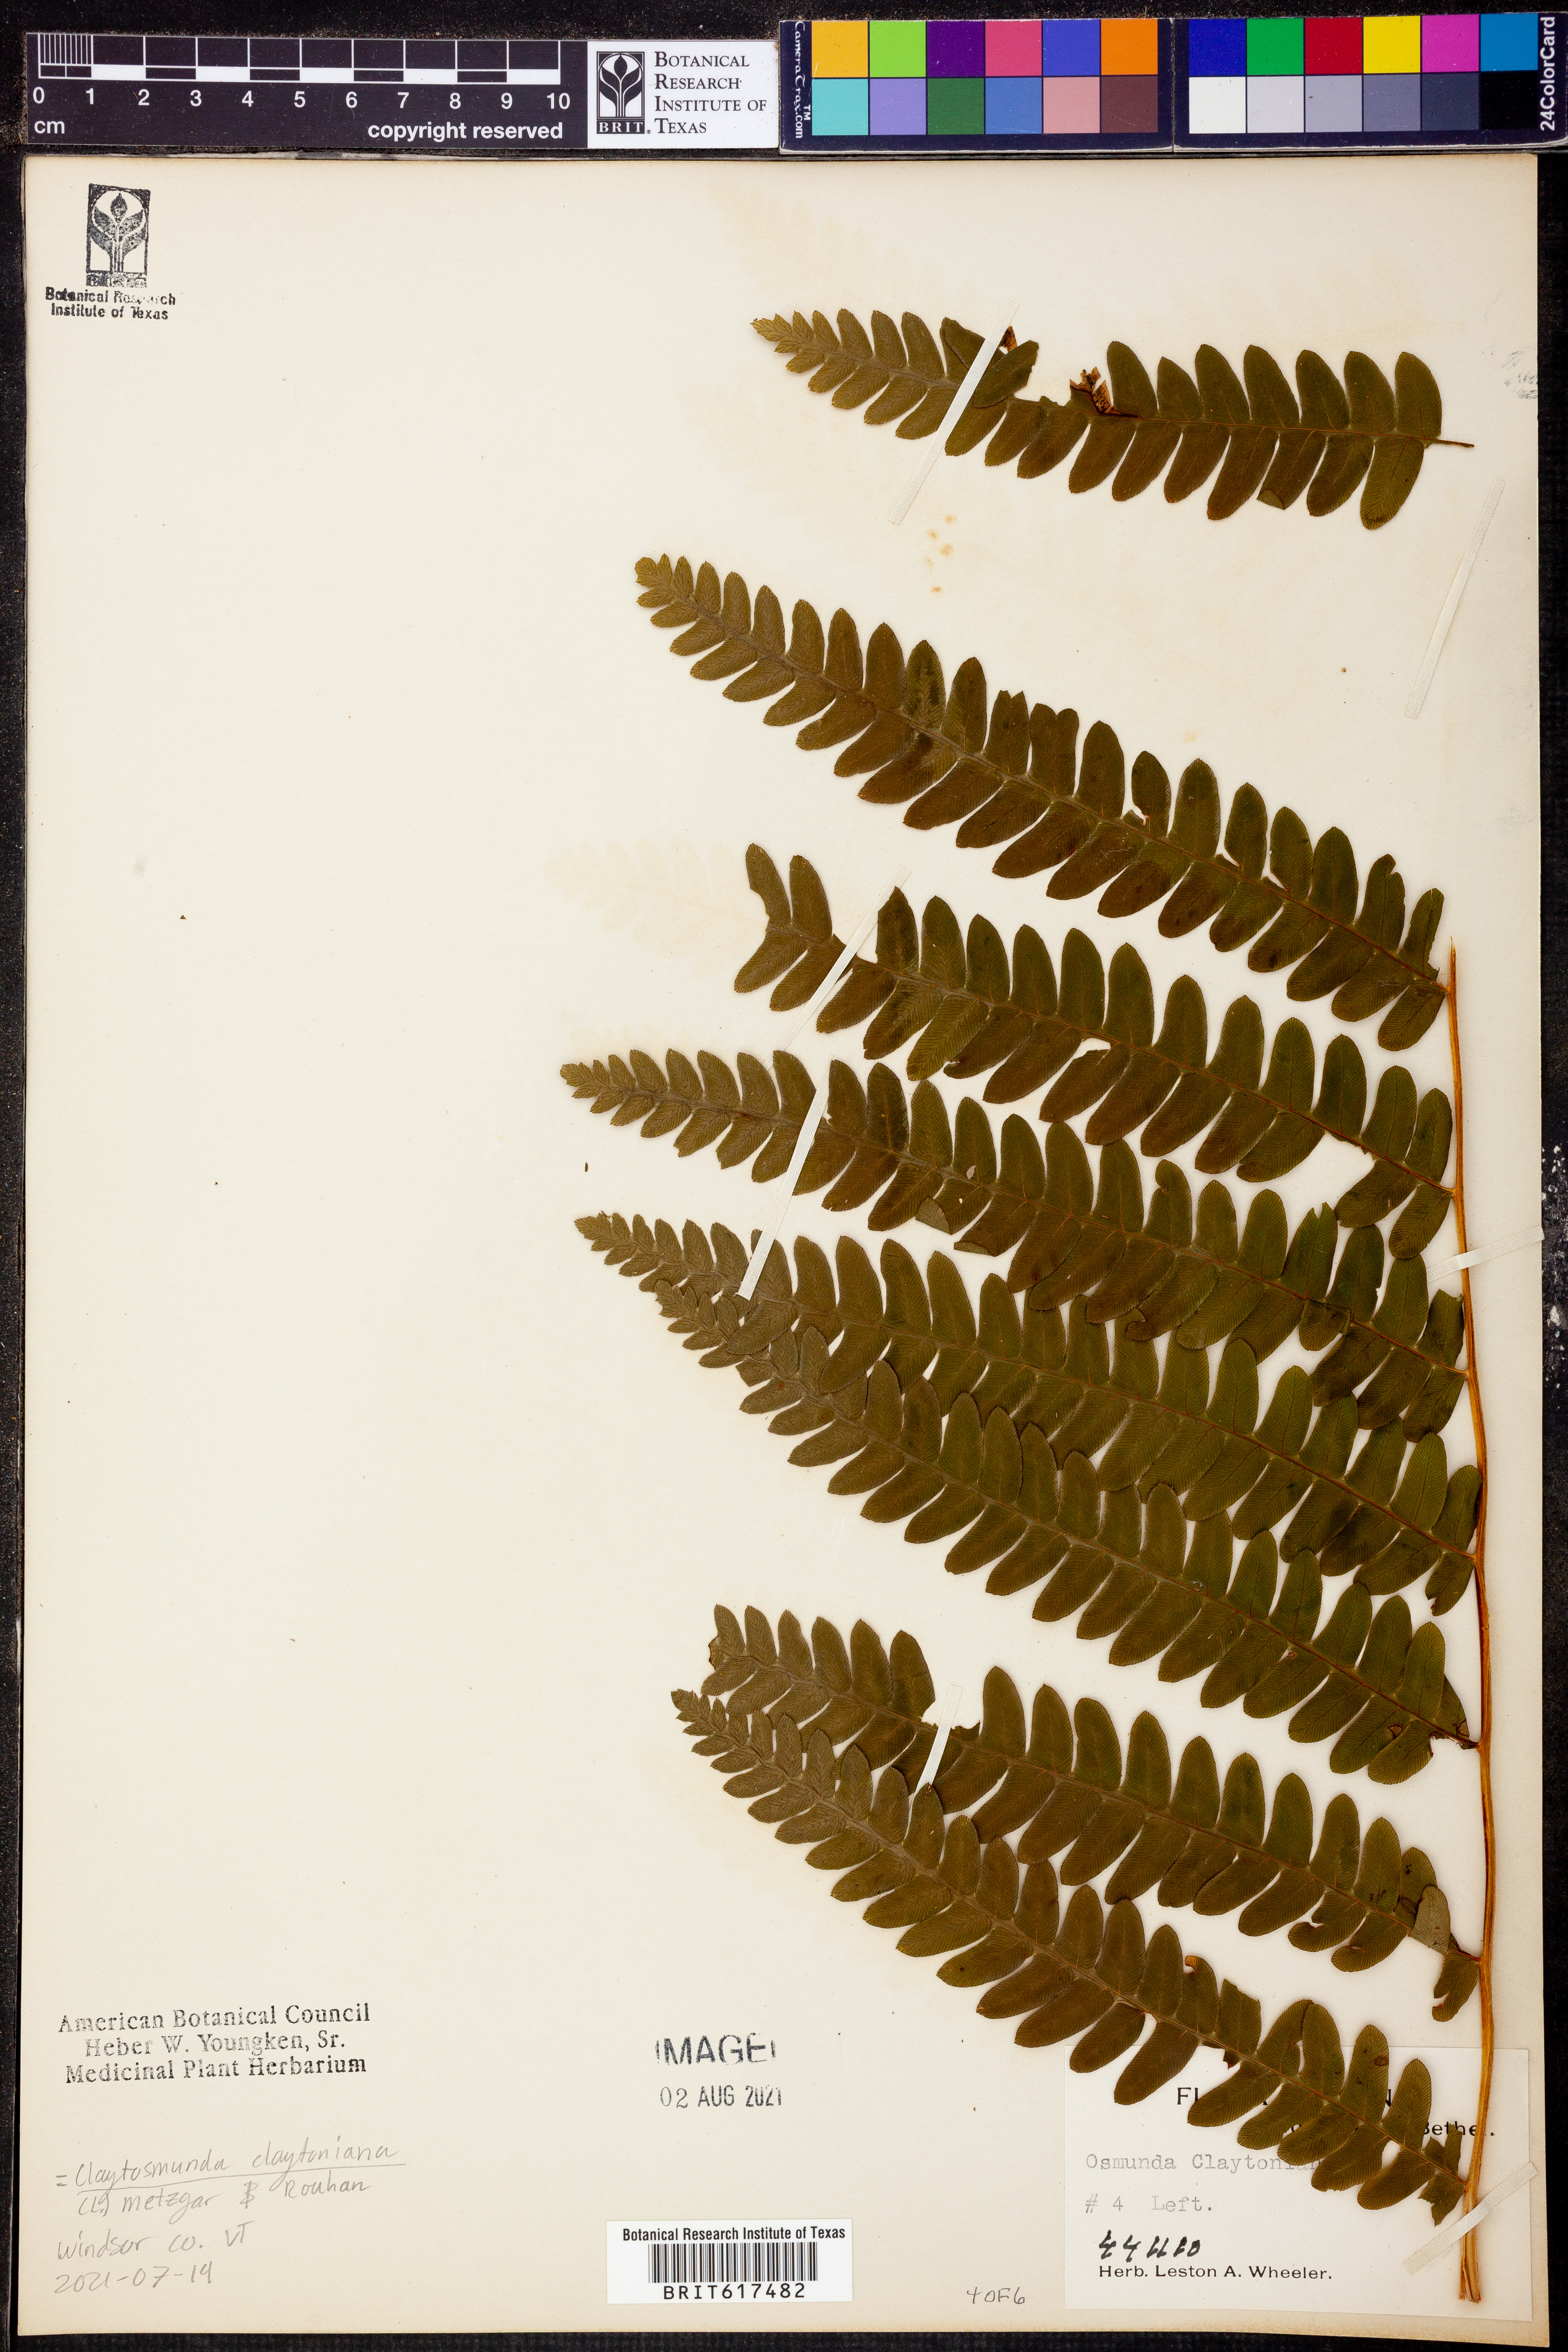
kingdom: Plantae
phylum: Tracheophyta
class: Polypodiopsida
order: Osmundales
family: Osmundaceae
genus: Claytosmunda
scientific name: Claytosmunda claytoniana
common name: Clayton's fern
